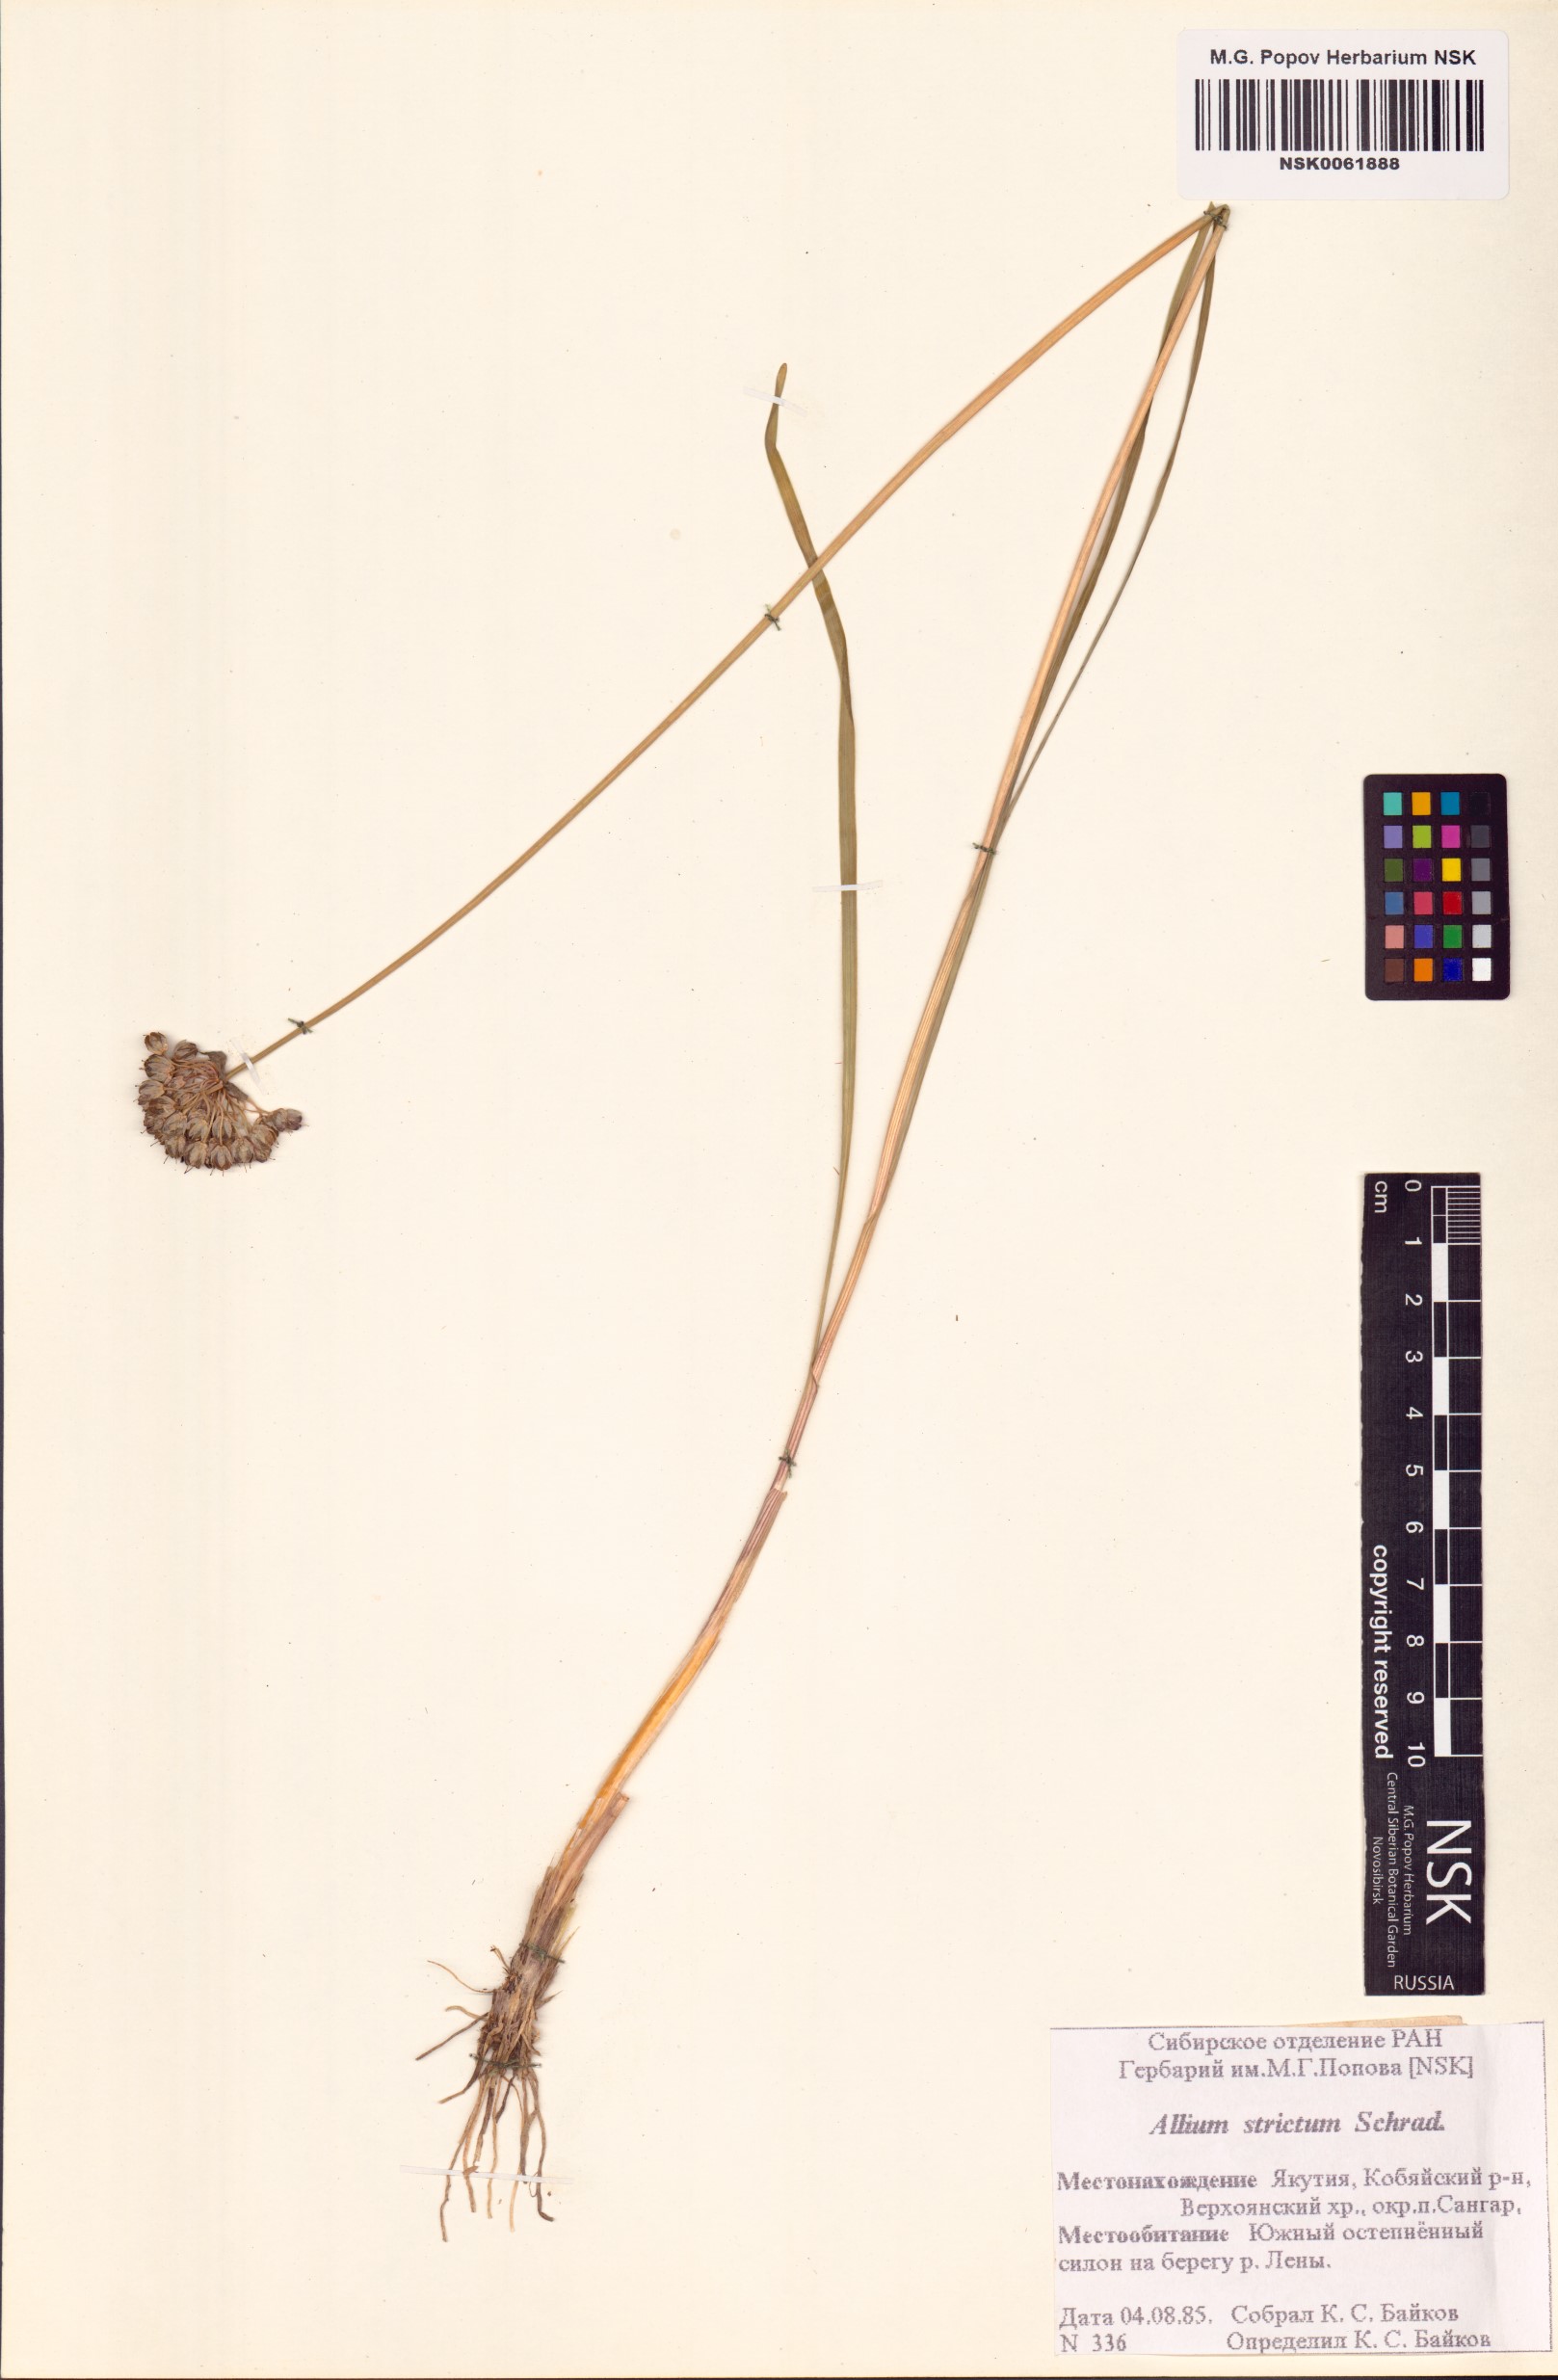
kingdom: Plantae
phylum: Tracheophyta
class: Liliopsida
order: Asparagales
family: Amaryllidaceae
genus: Allium
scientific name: Allium strictum
